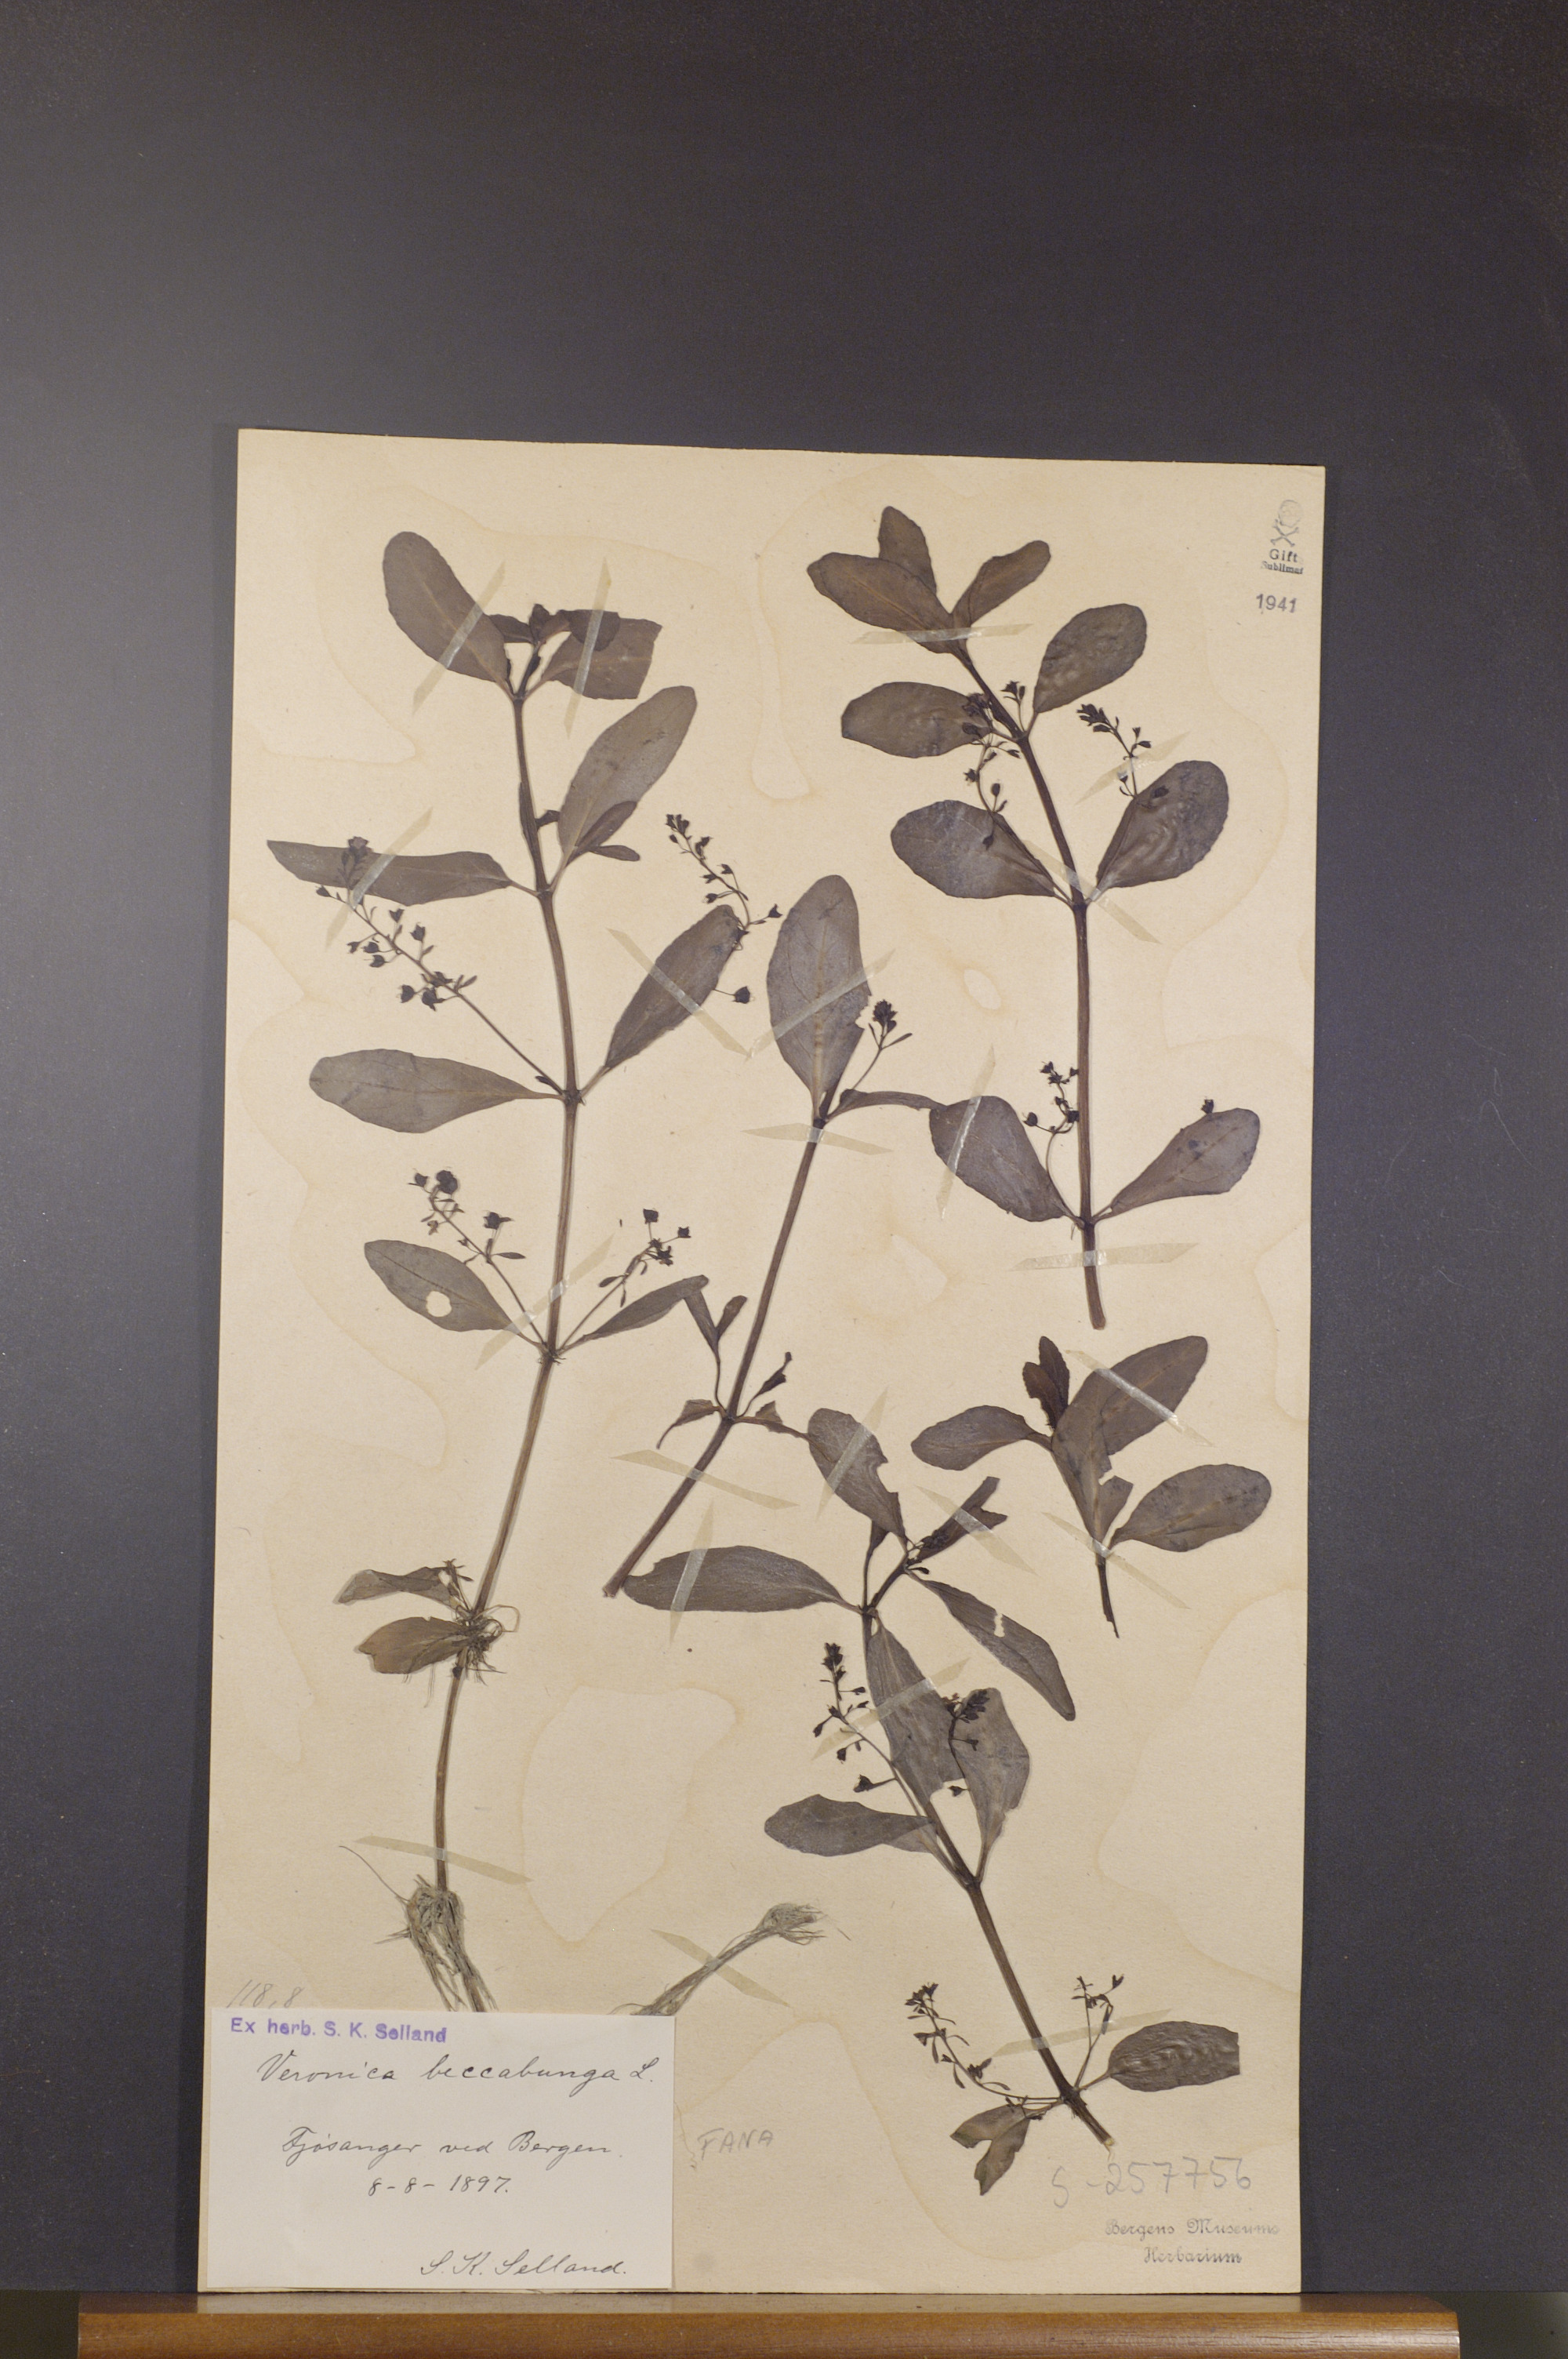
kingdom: Plantae
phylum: Tracheophyta
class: Magnoliopsida
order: Lamiales
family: Plantaginaceae
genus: Veronica
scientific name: Veronica beccabunga
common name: Brooklime
